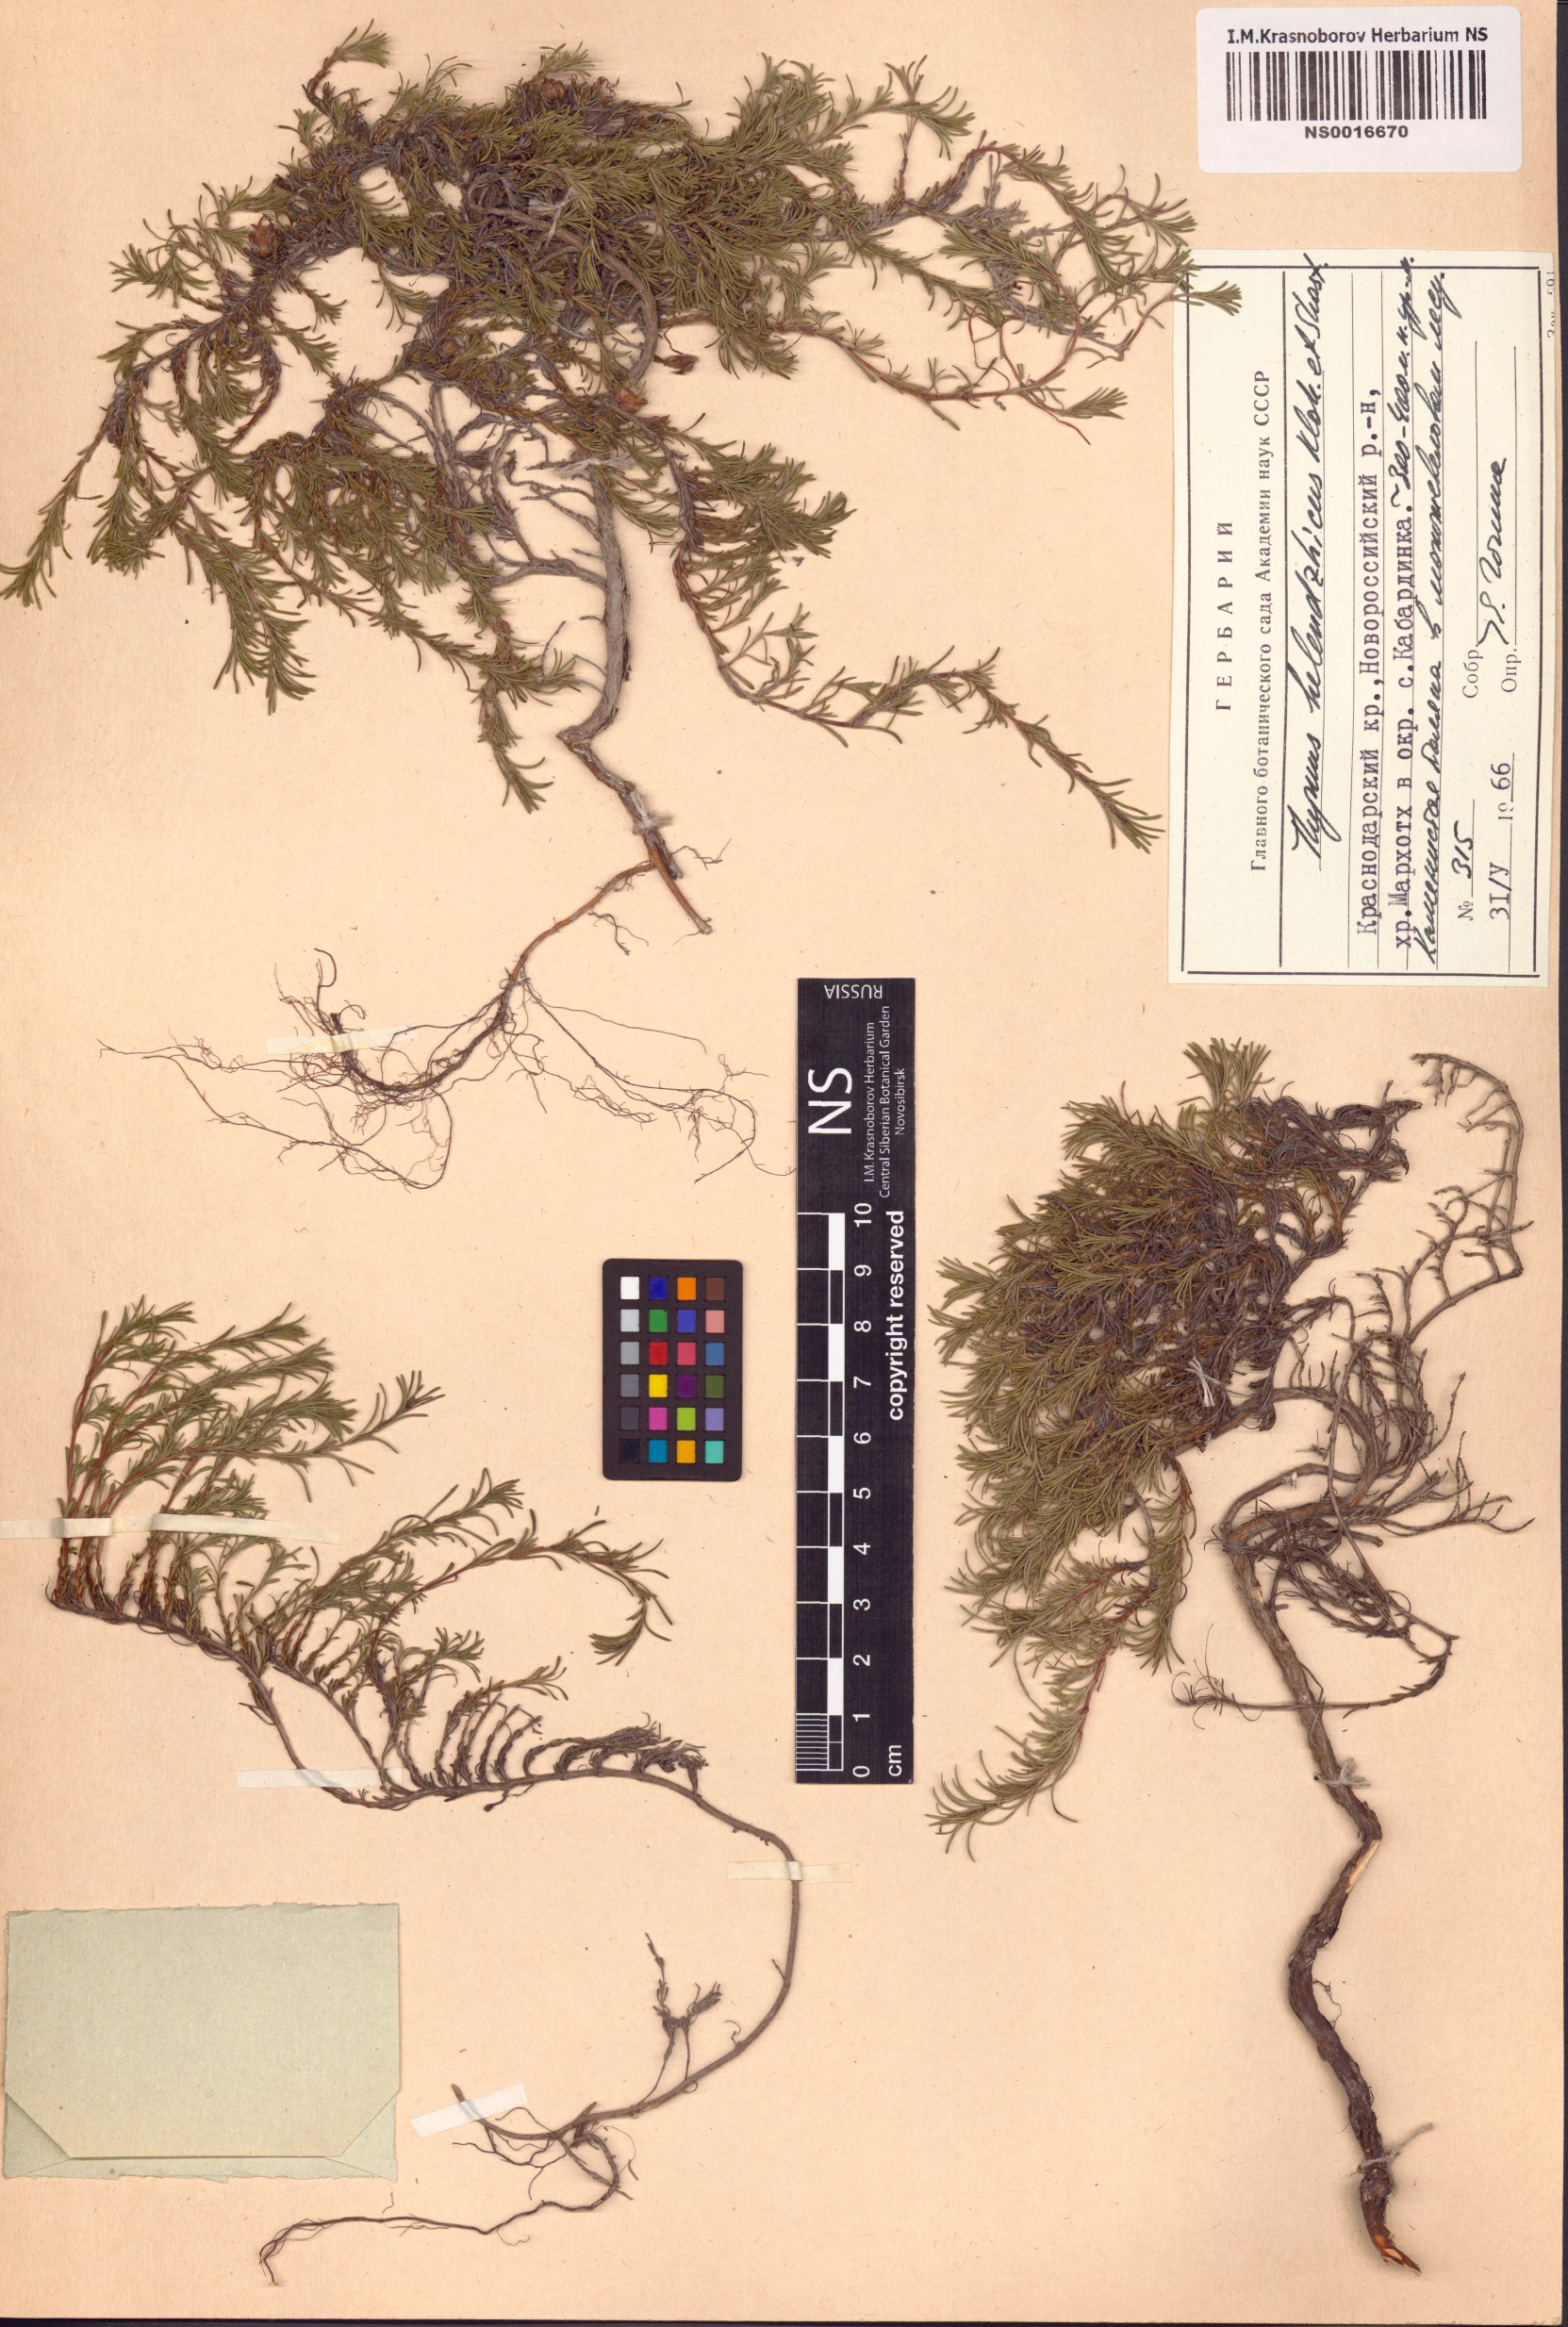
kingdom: Plantae
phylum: Tracheophyta
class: Magnoliopsida
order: Lamiales
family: Lamiaceae
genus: Thymus
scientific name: Thymus helendzhicus
